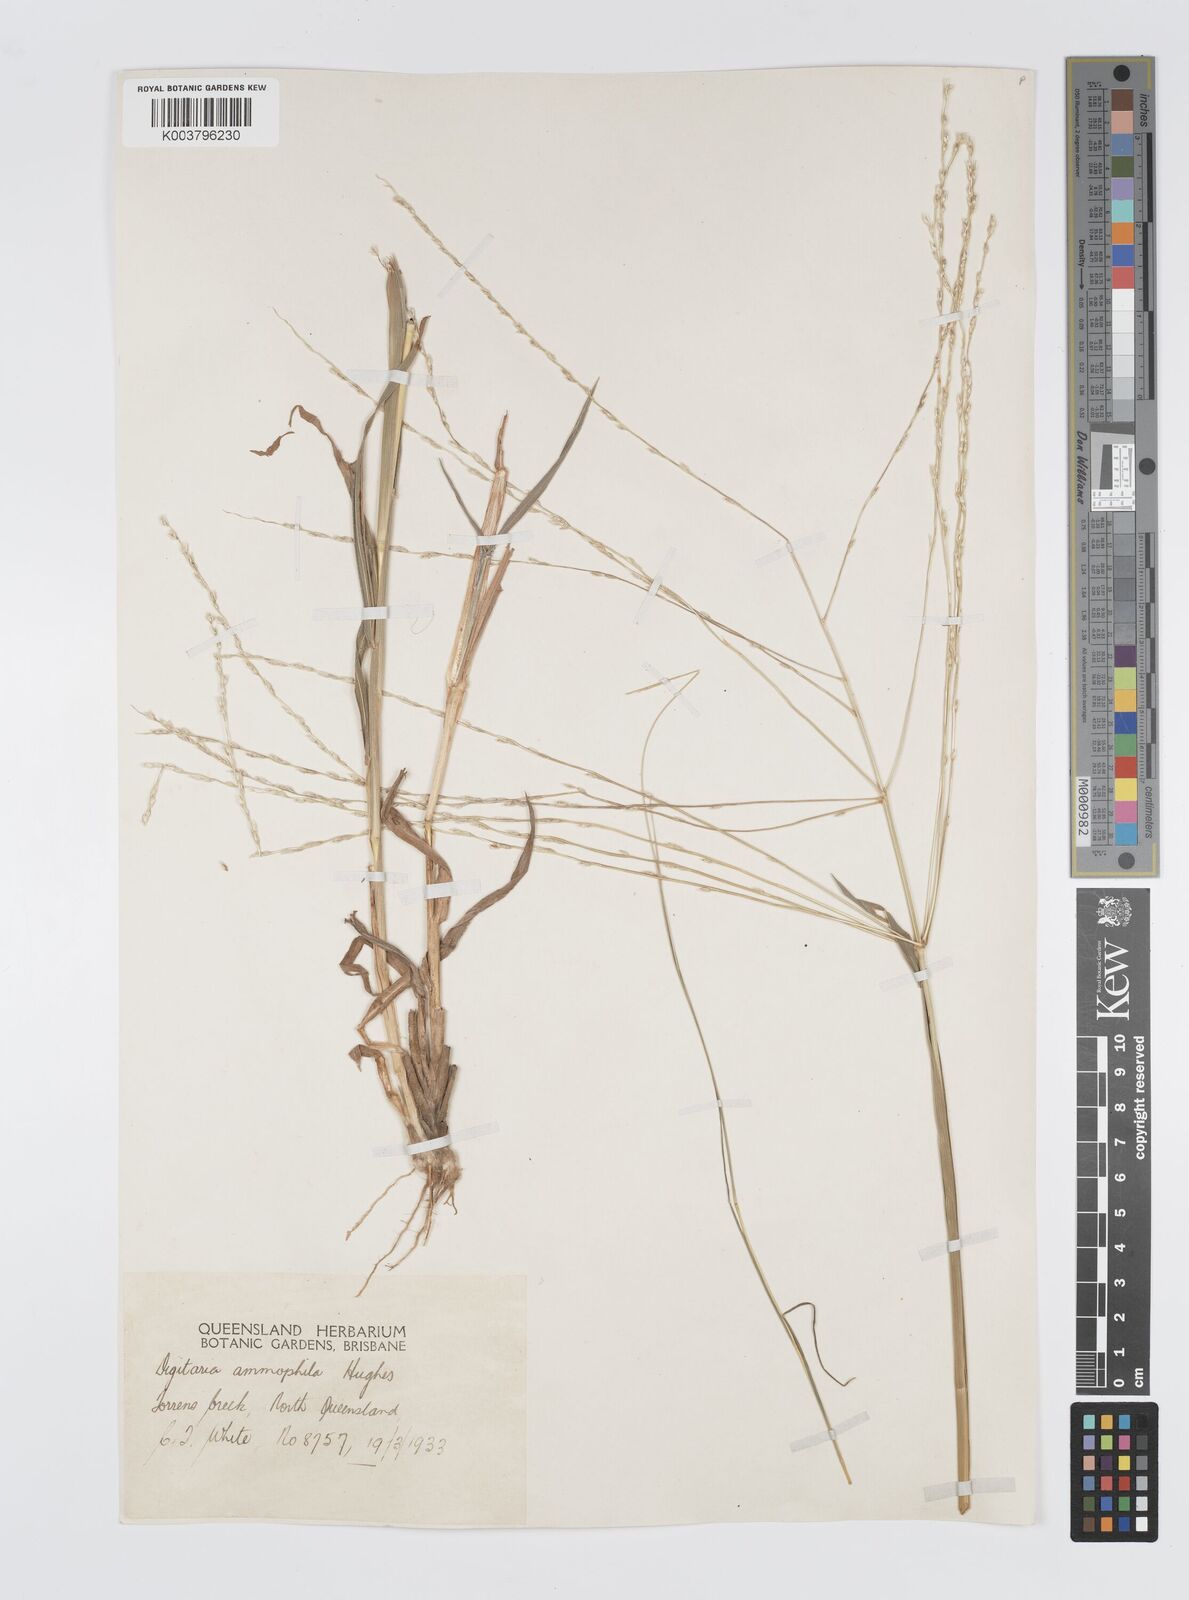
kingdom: Plantae
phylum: Tracheophyta
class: Liliopsida
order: Poales
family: Poaceae
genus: Digitaria
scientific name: Digitaria ammophila
